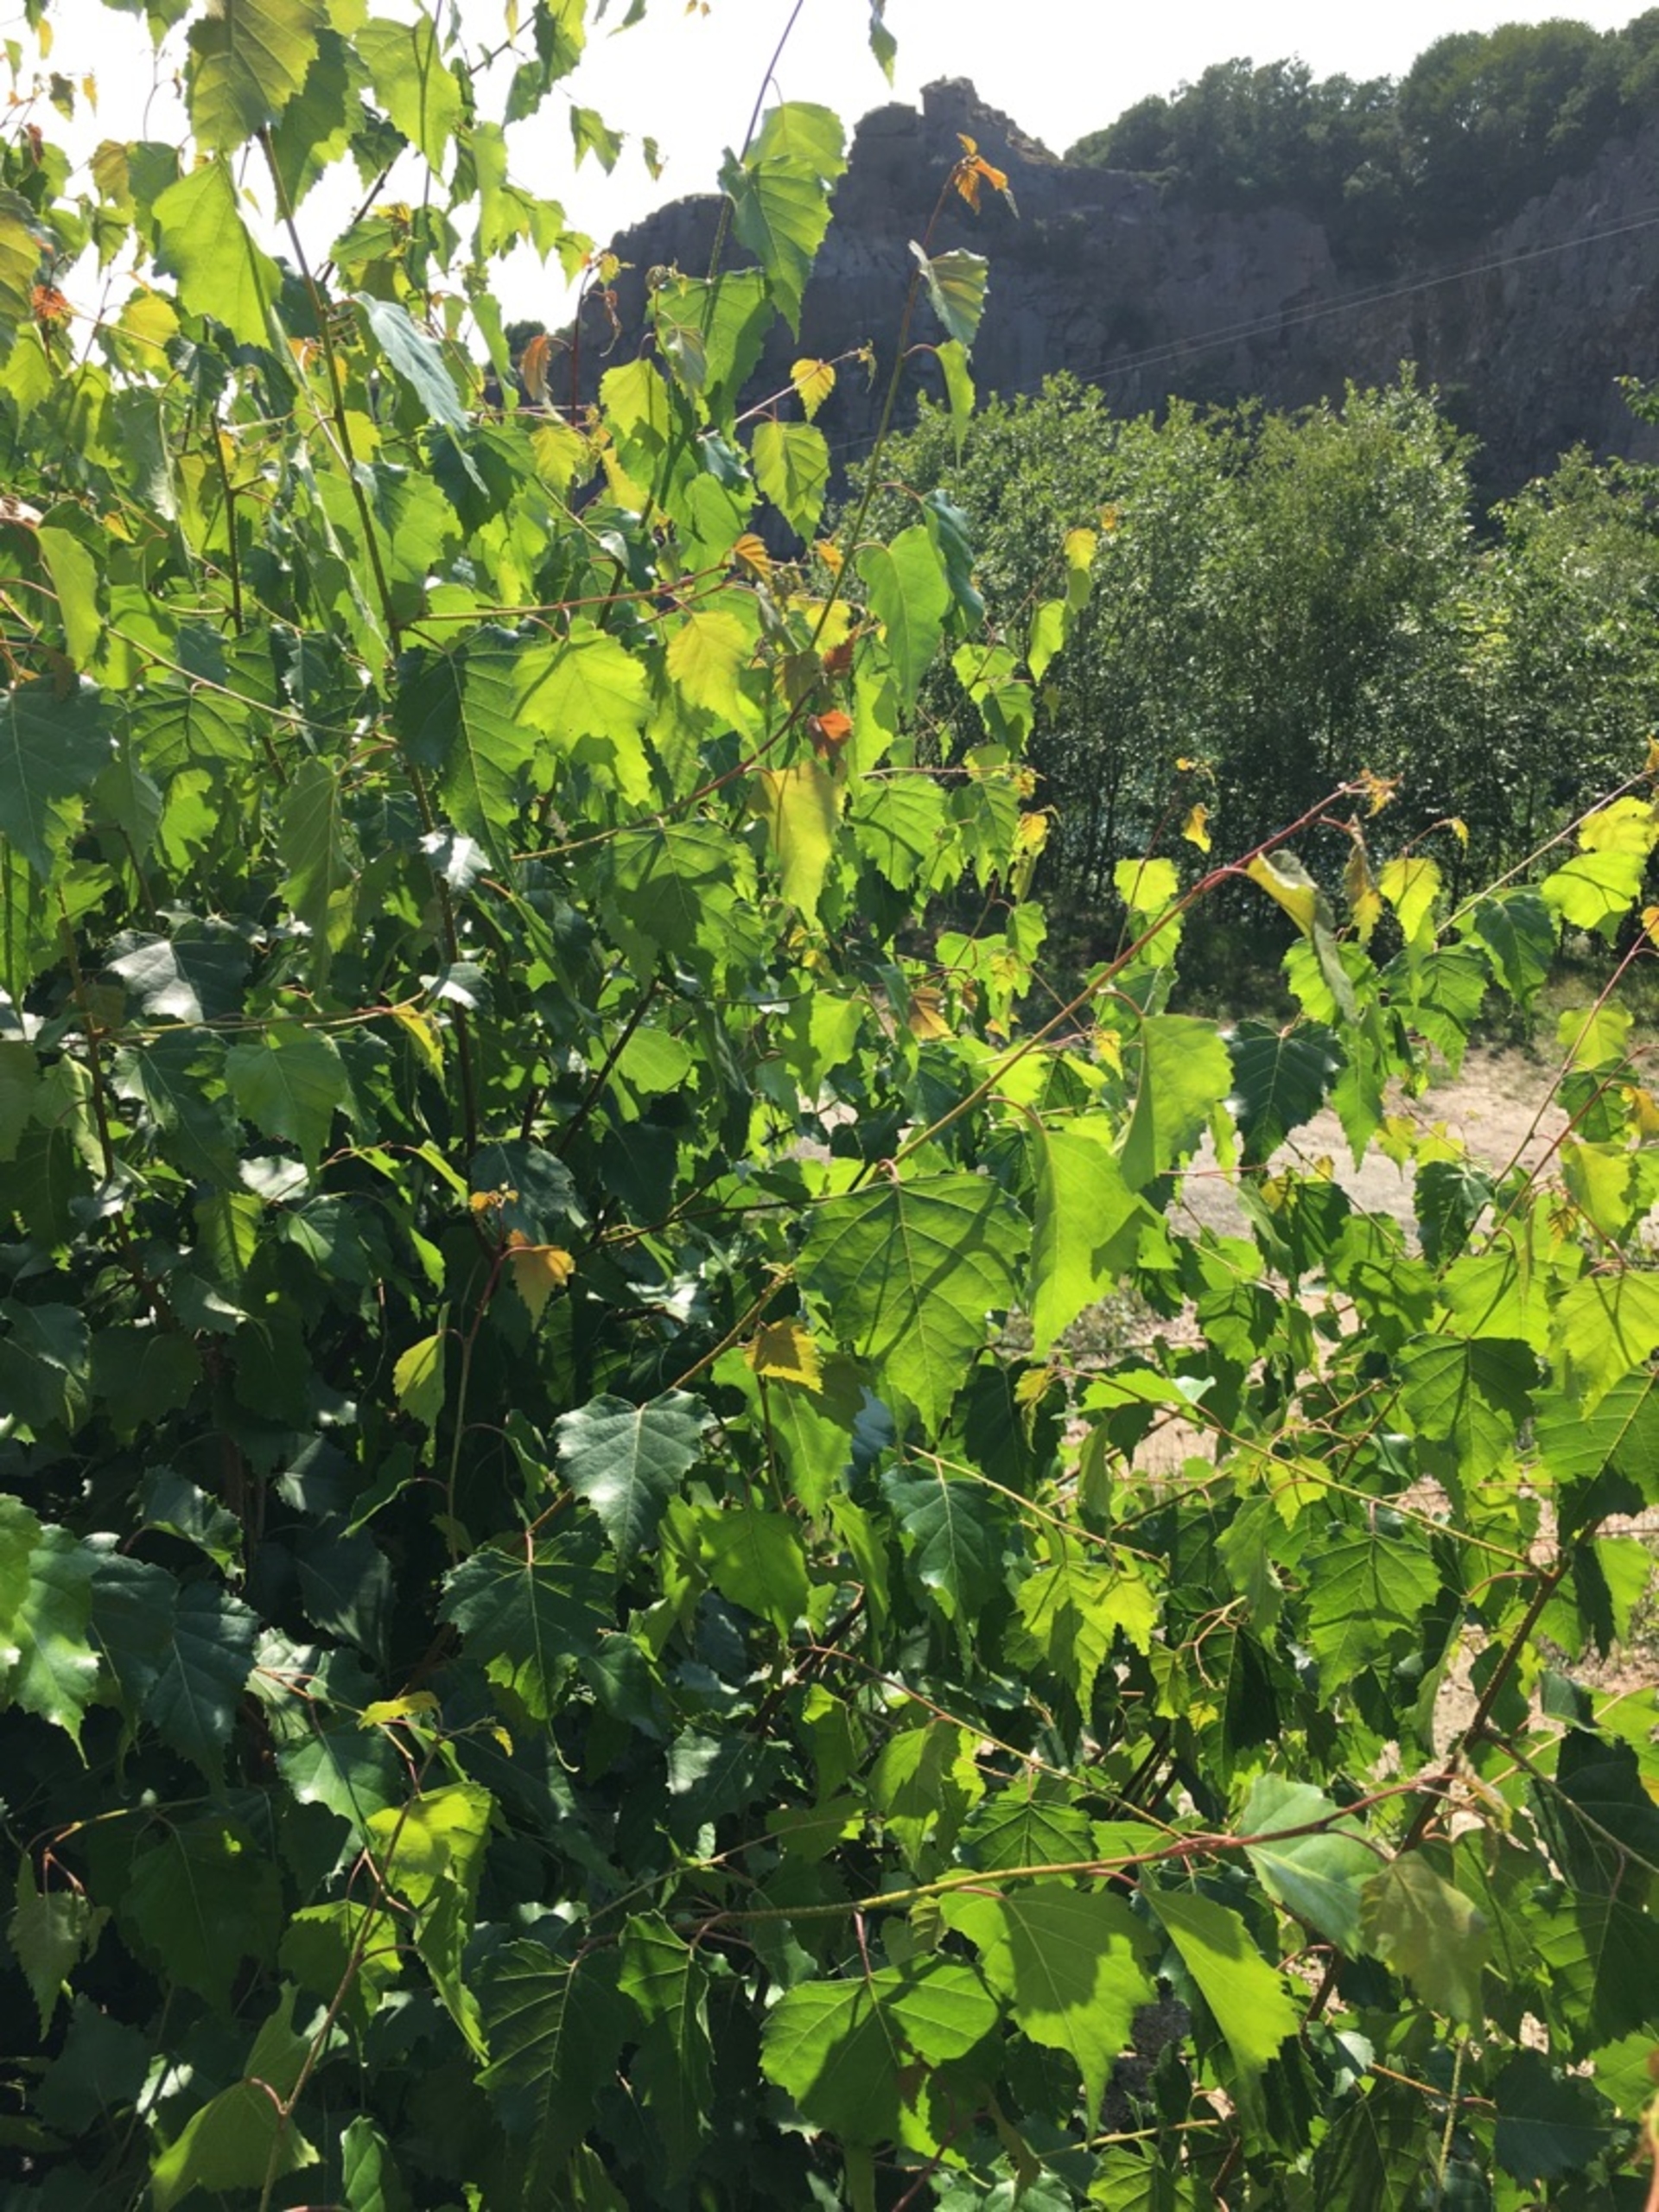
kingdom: Plantae
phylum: Tracheophyta
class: Magnoliopsida
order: Fagales
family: Betulaceae
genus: Betula
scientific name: Betula pendula
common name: Vorte-birk
